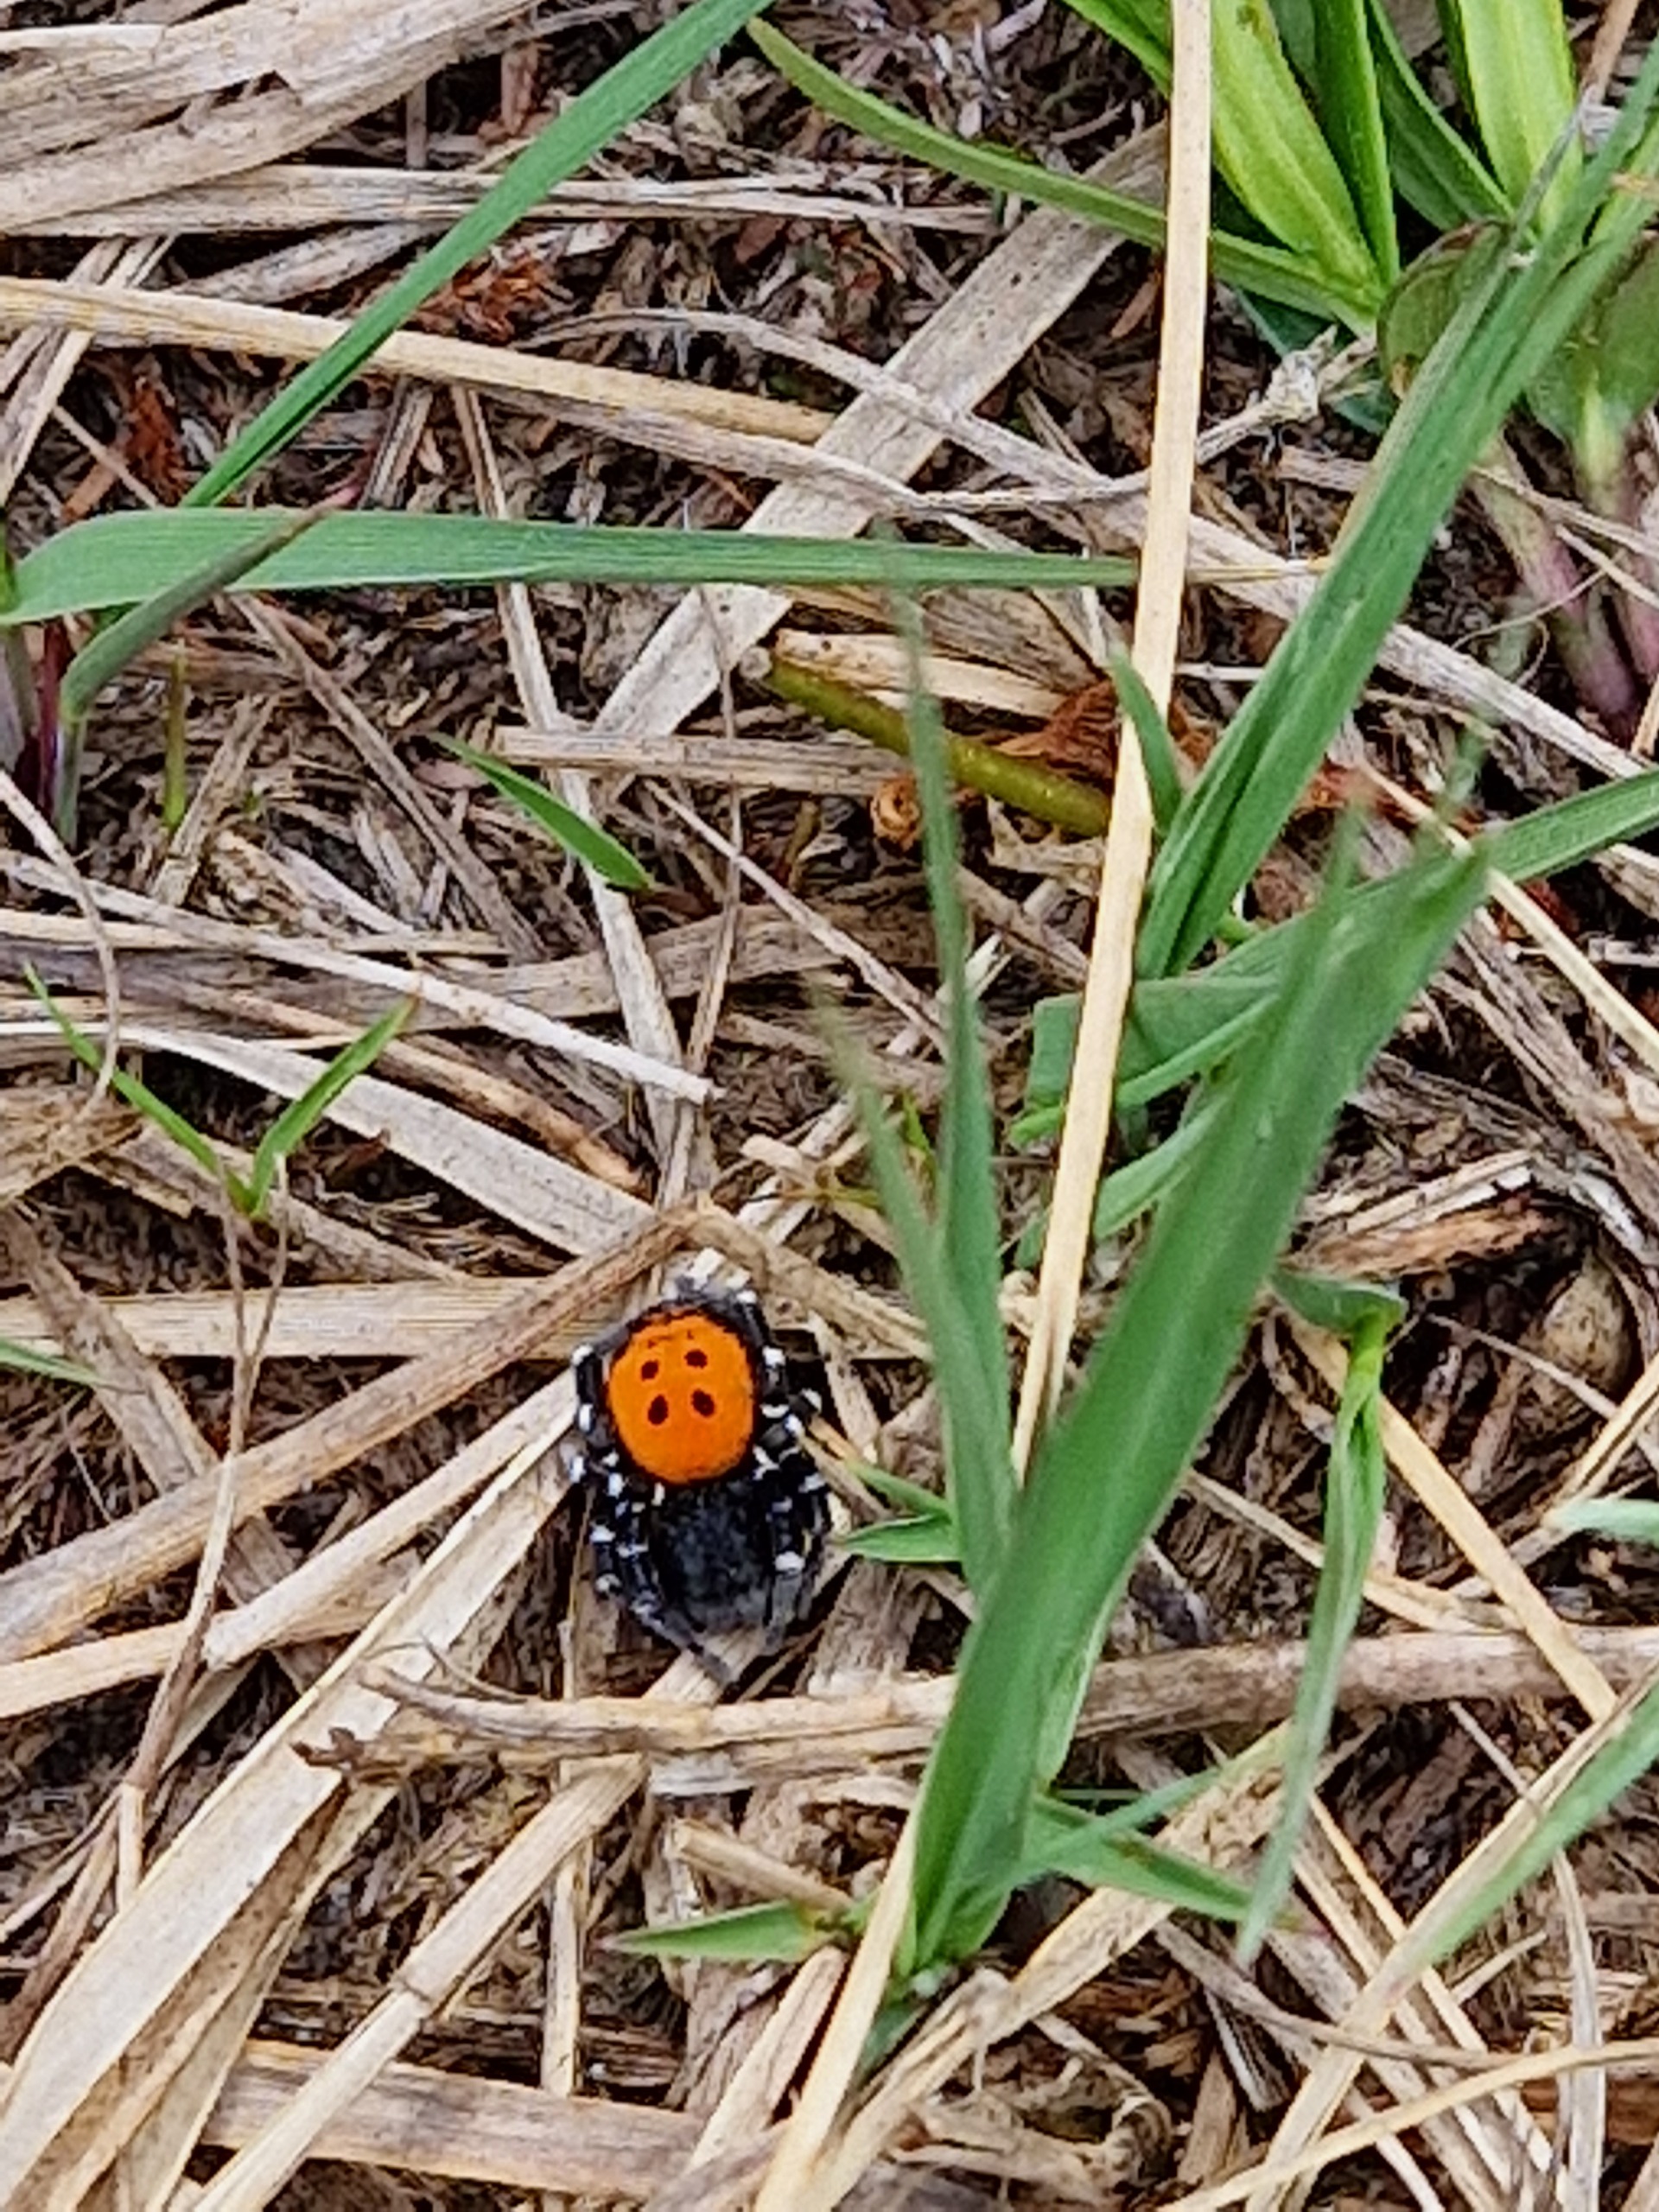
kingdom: Animalia
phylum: Arthropoda
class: Arachnida
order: Araneae
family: Eresidae
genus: Eresus
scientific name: Eresus sandaliatus
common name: Mariehøneedderkop
